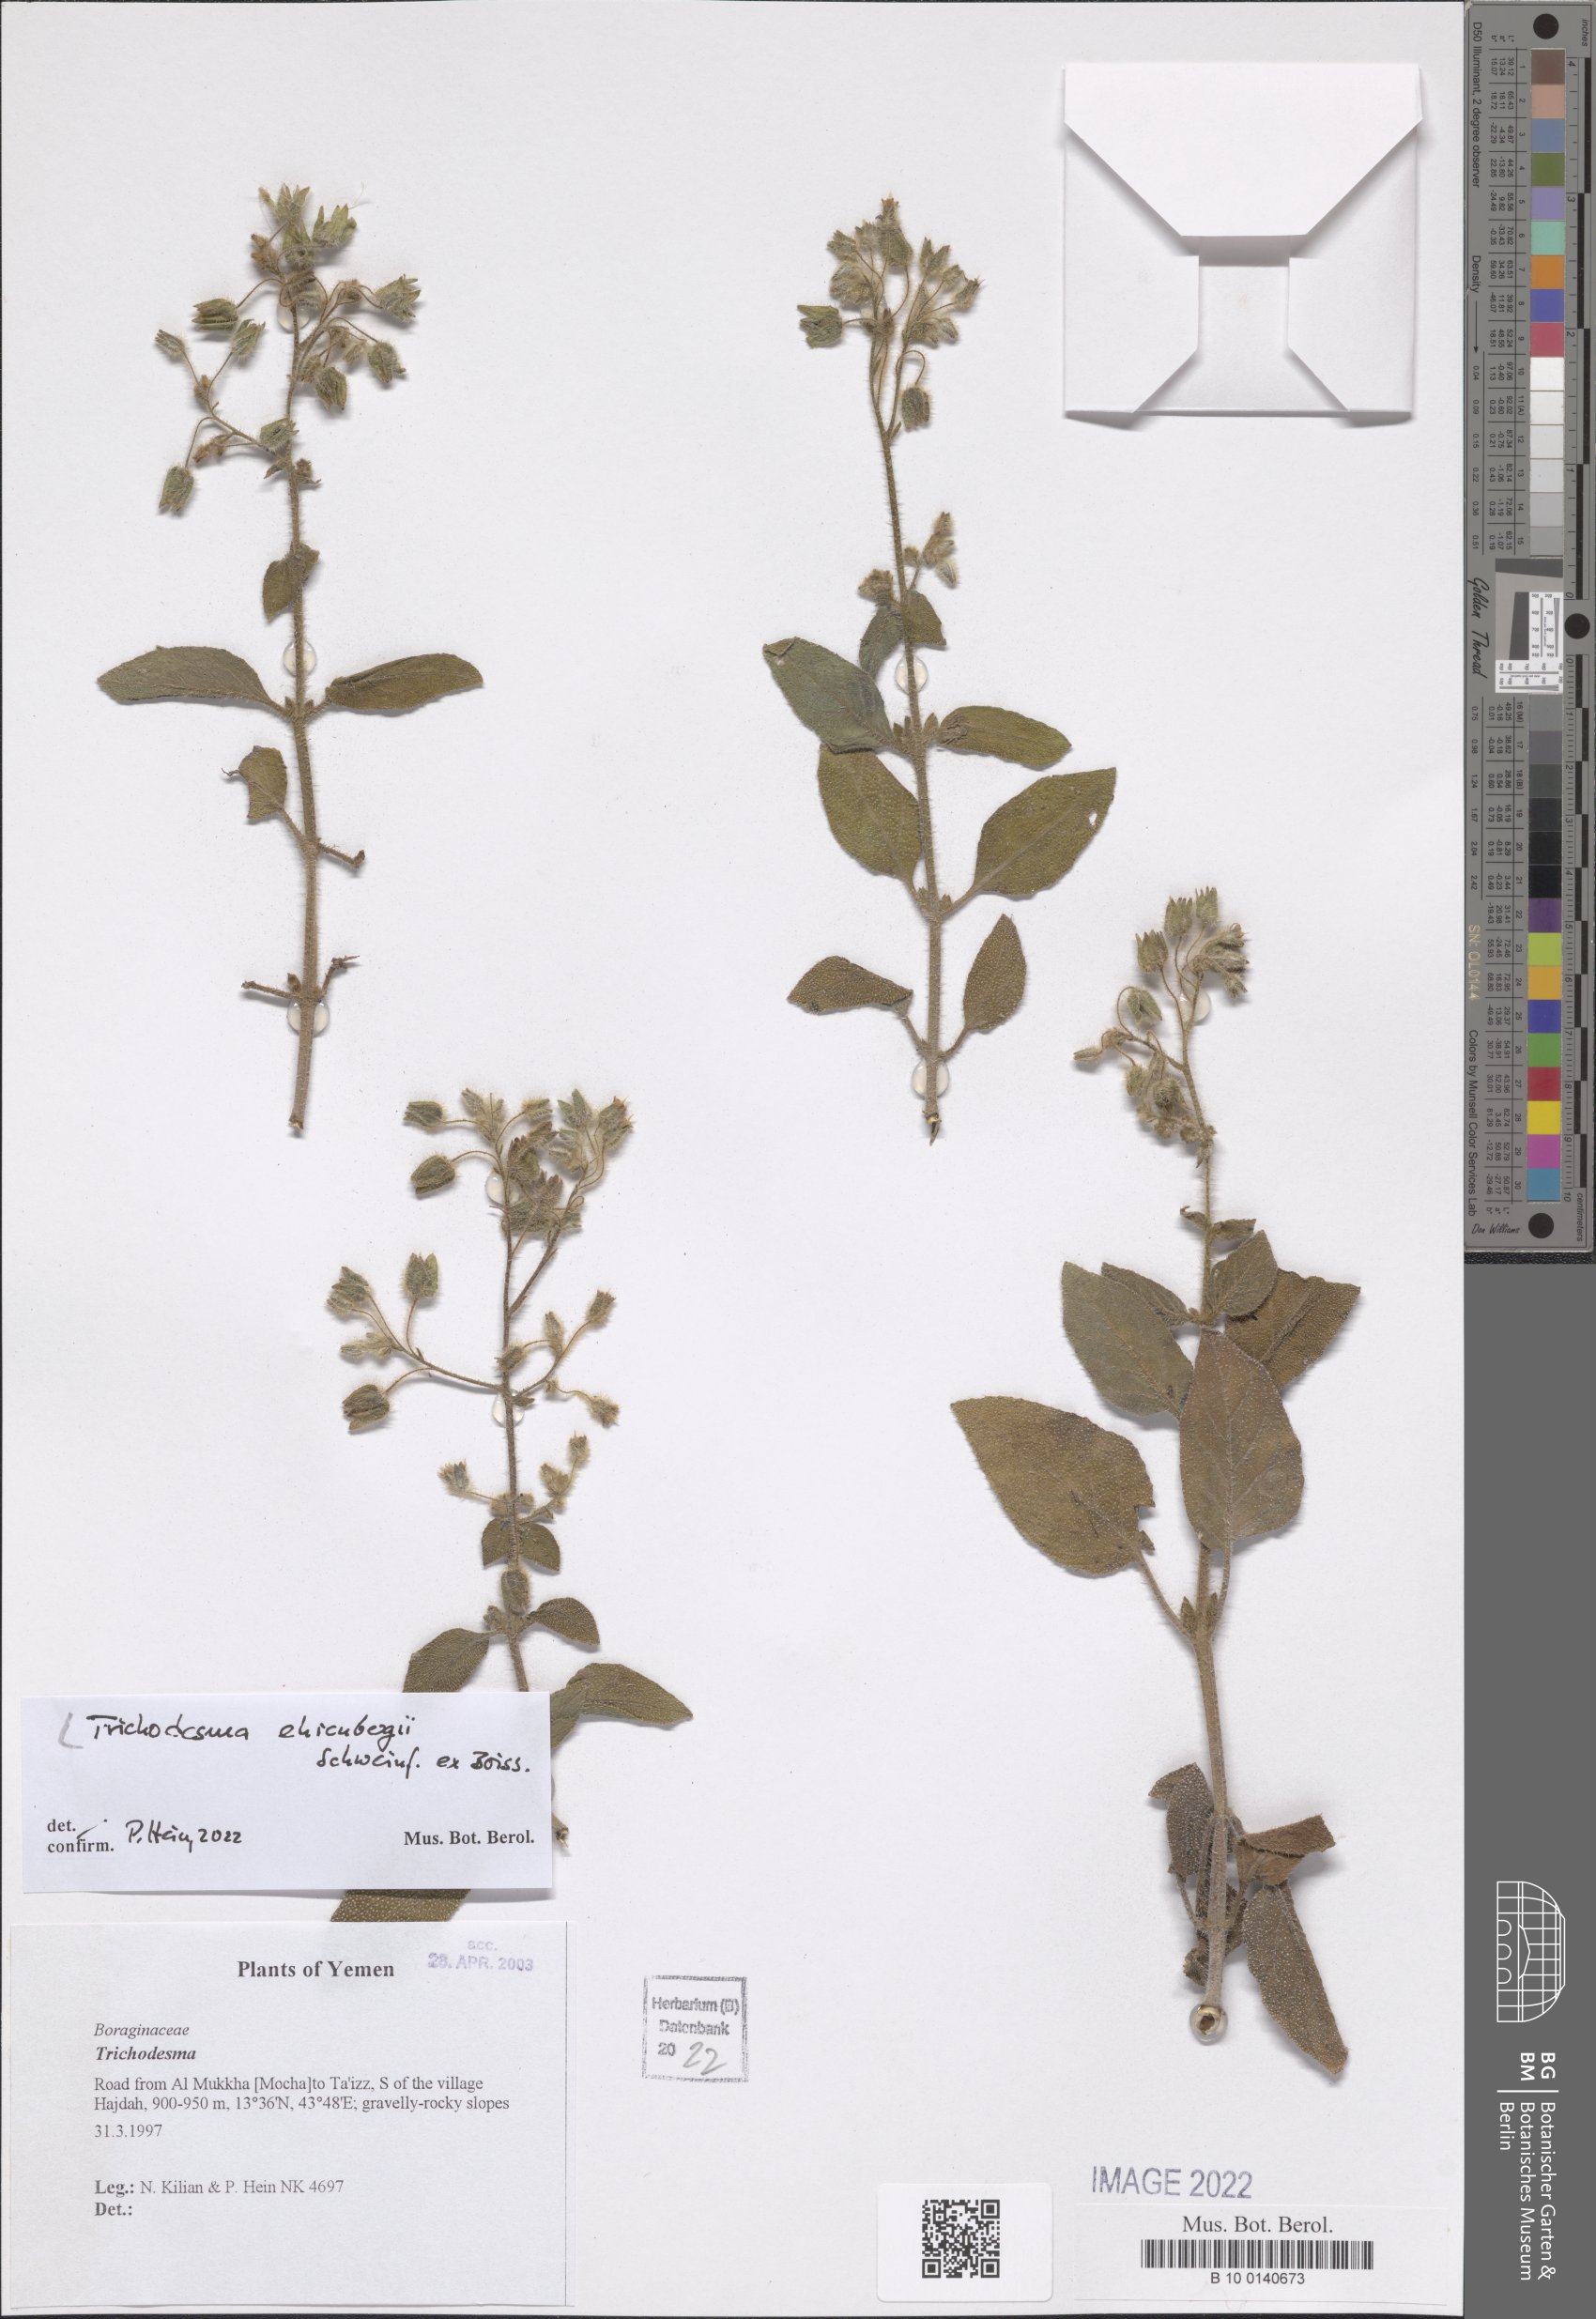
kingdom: Plantae
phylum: Tracheophyta
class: Magnoliopsida
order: Boraginales
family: Boraginaceae
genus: Trichodesma
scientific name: Trichodesma ehrenbergii
